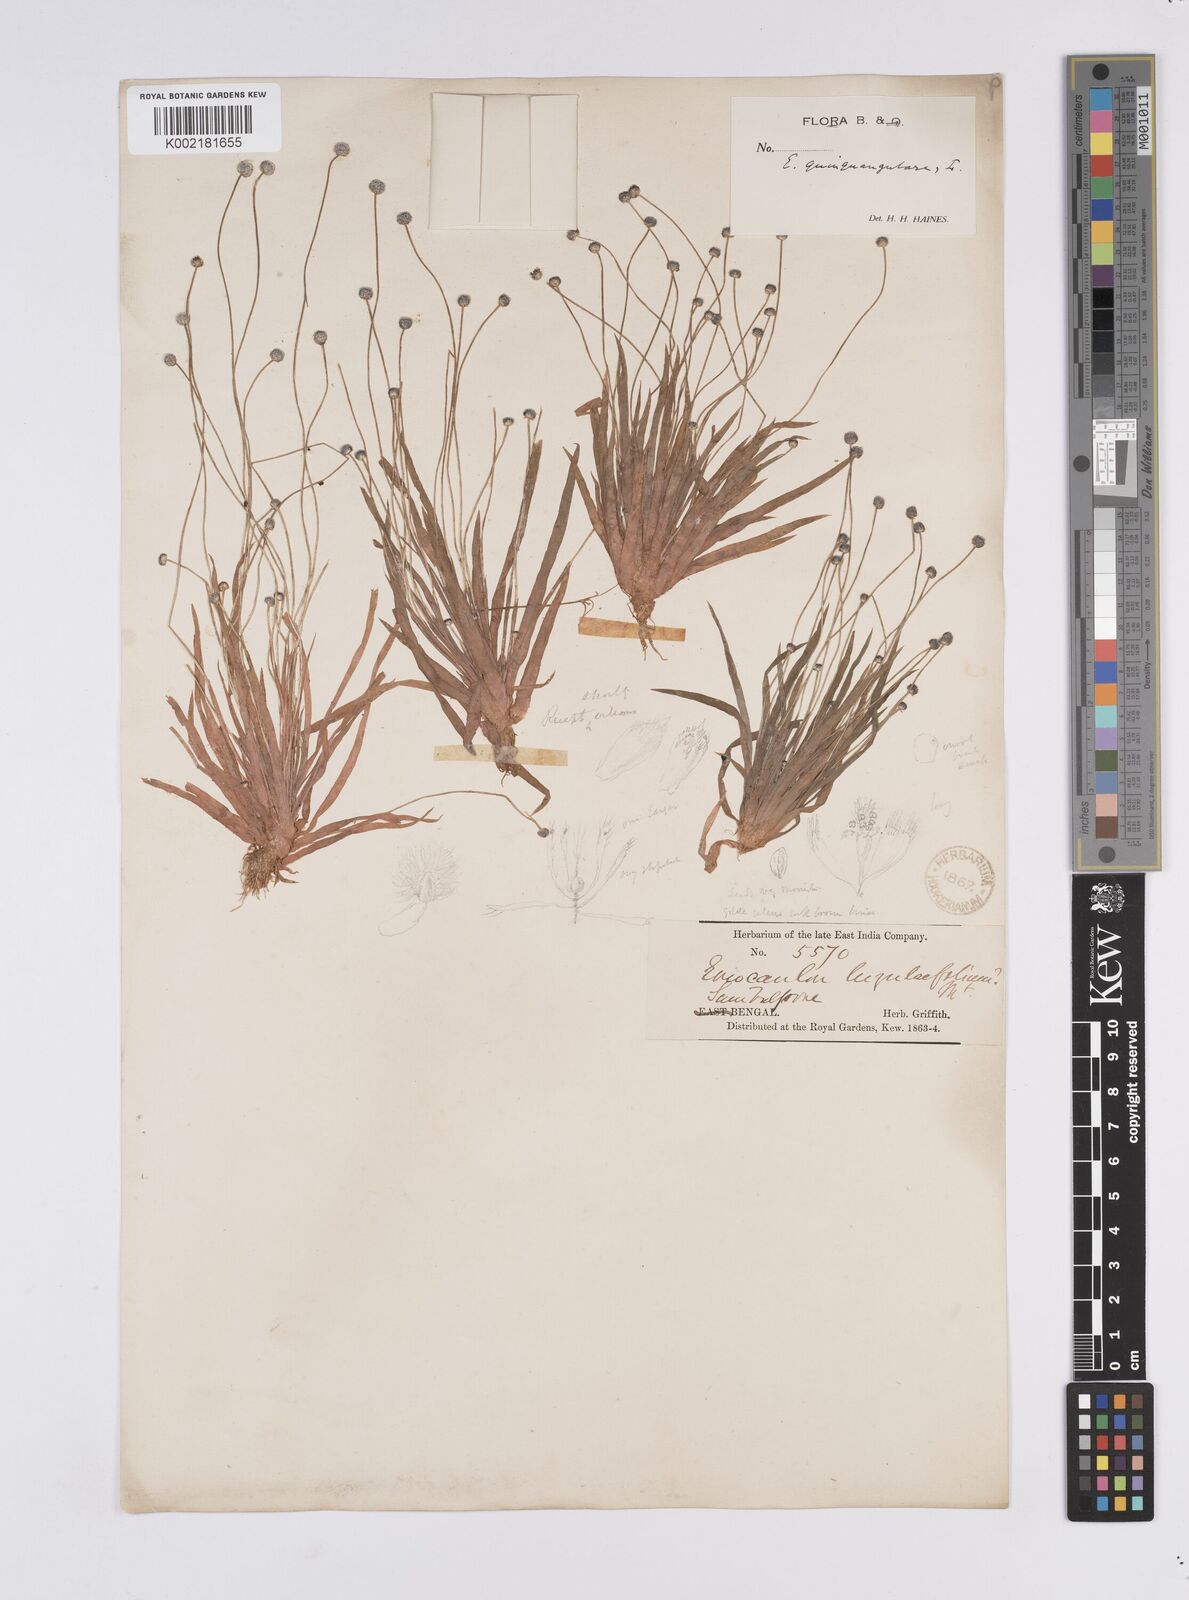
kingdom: Plantae
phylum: Tracheophyta
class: Liliopsida
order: Poales
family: Eriocaulaceae
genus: Eriocaulon
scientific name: Eriocaulon quinquangulare
